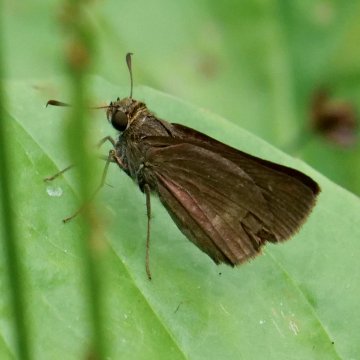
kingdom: Animalia
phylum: Arthropoda
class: Insecta
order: Lepidoptera
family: Hesperiidae
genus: Euphyes
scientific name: Euphyes vestris
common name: Dun Skipper
